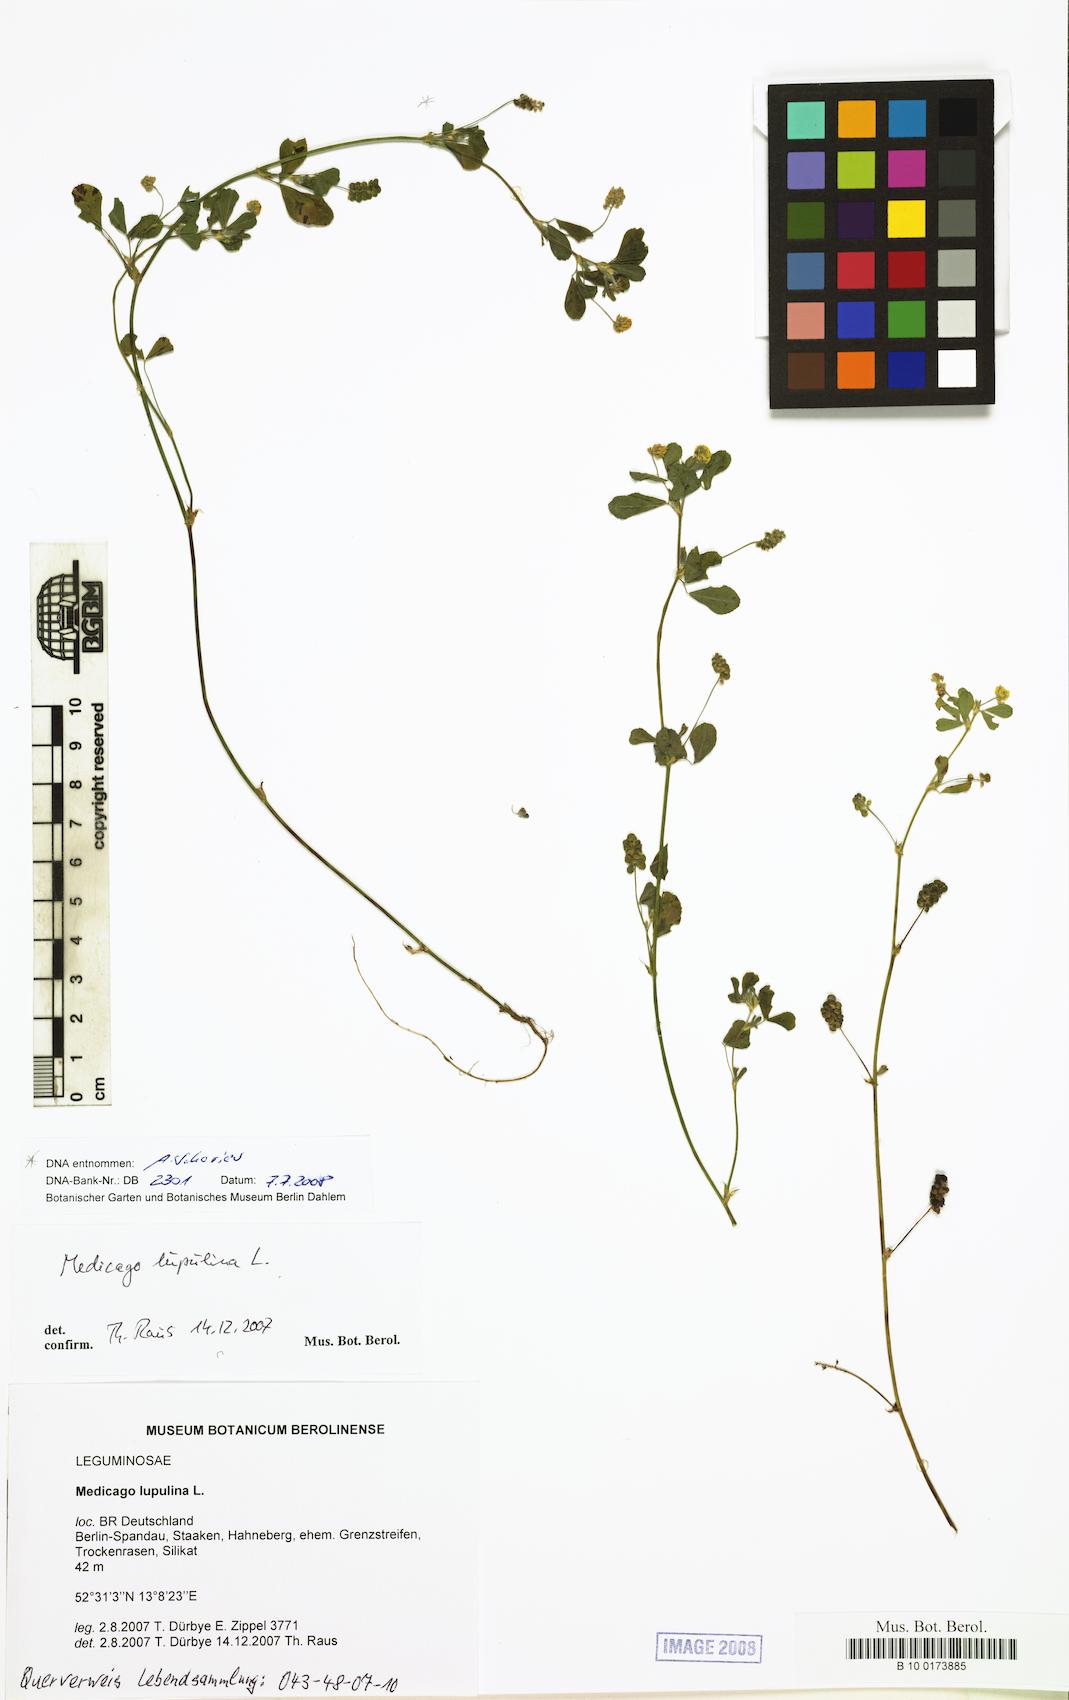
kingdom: Plantae
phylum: Tracheophyta
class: Magnoliopsida
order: Fabales
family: Fabaceae
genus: Medicago
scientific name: Medicago lupulina
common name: Black medick
